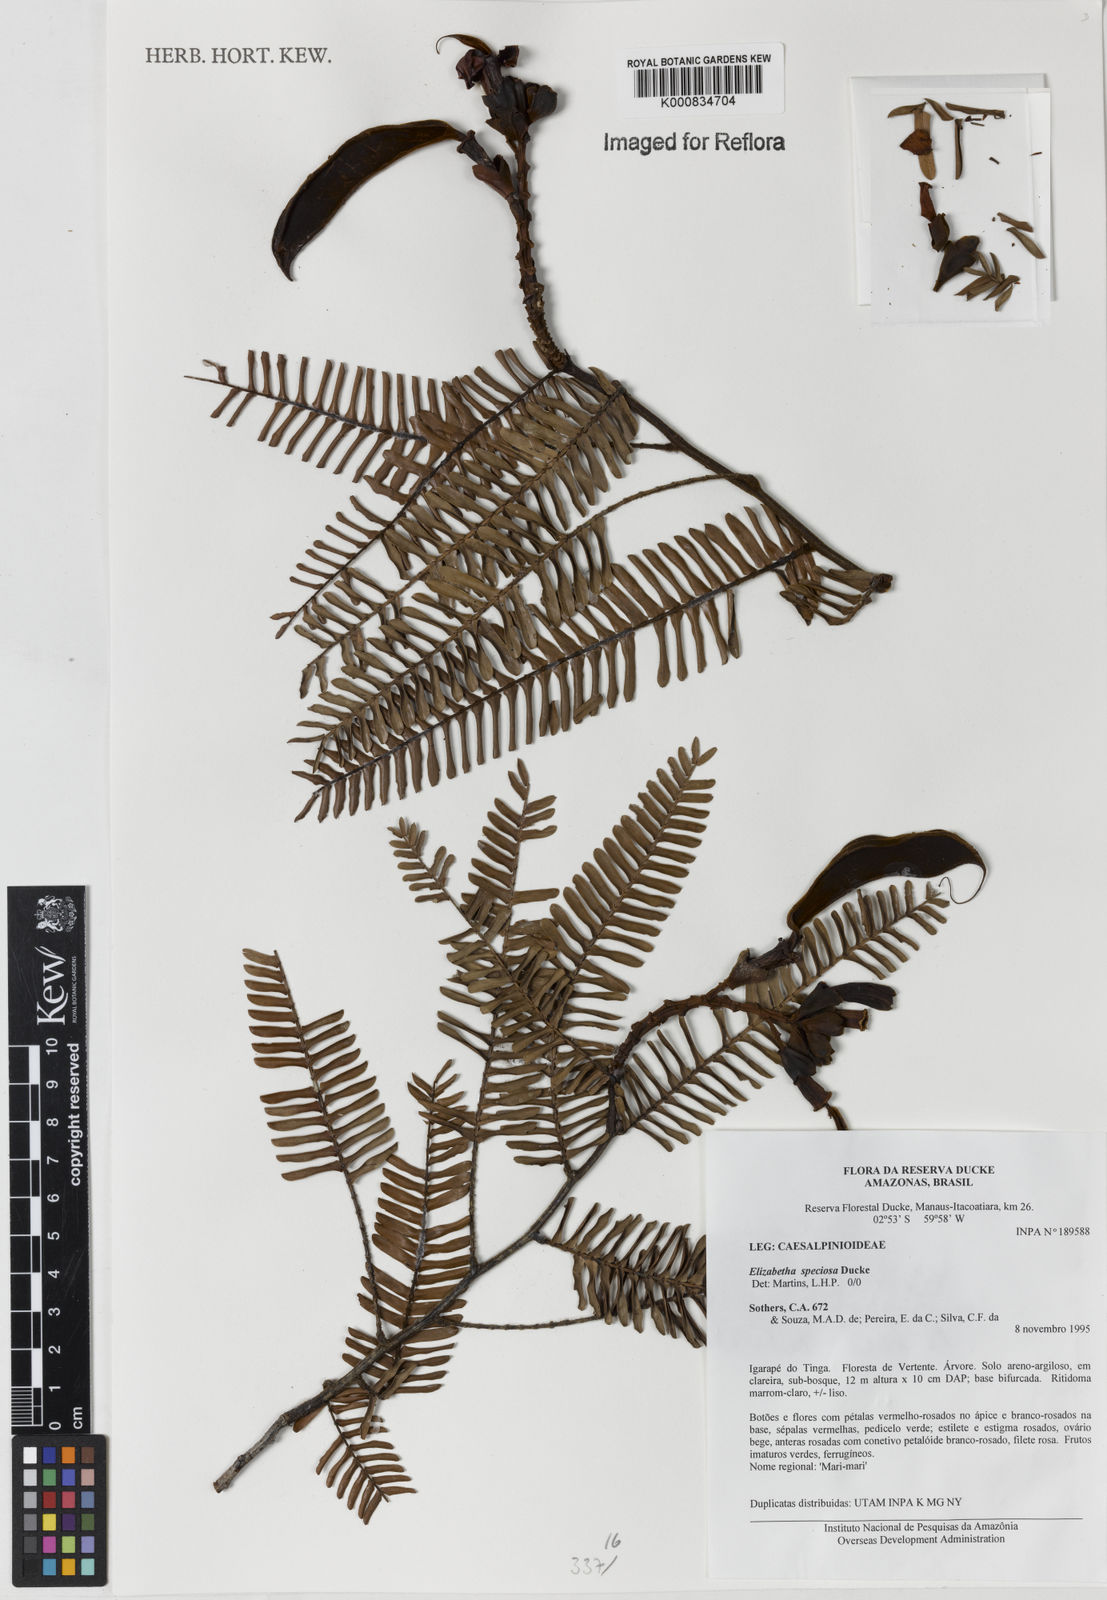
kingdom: Plantae
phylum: Tracheophyta
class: Magnoliopsida
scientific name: Magnoliopsida
